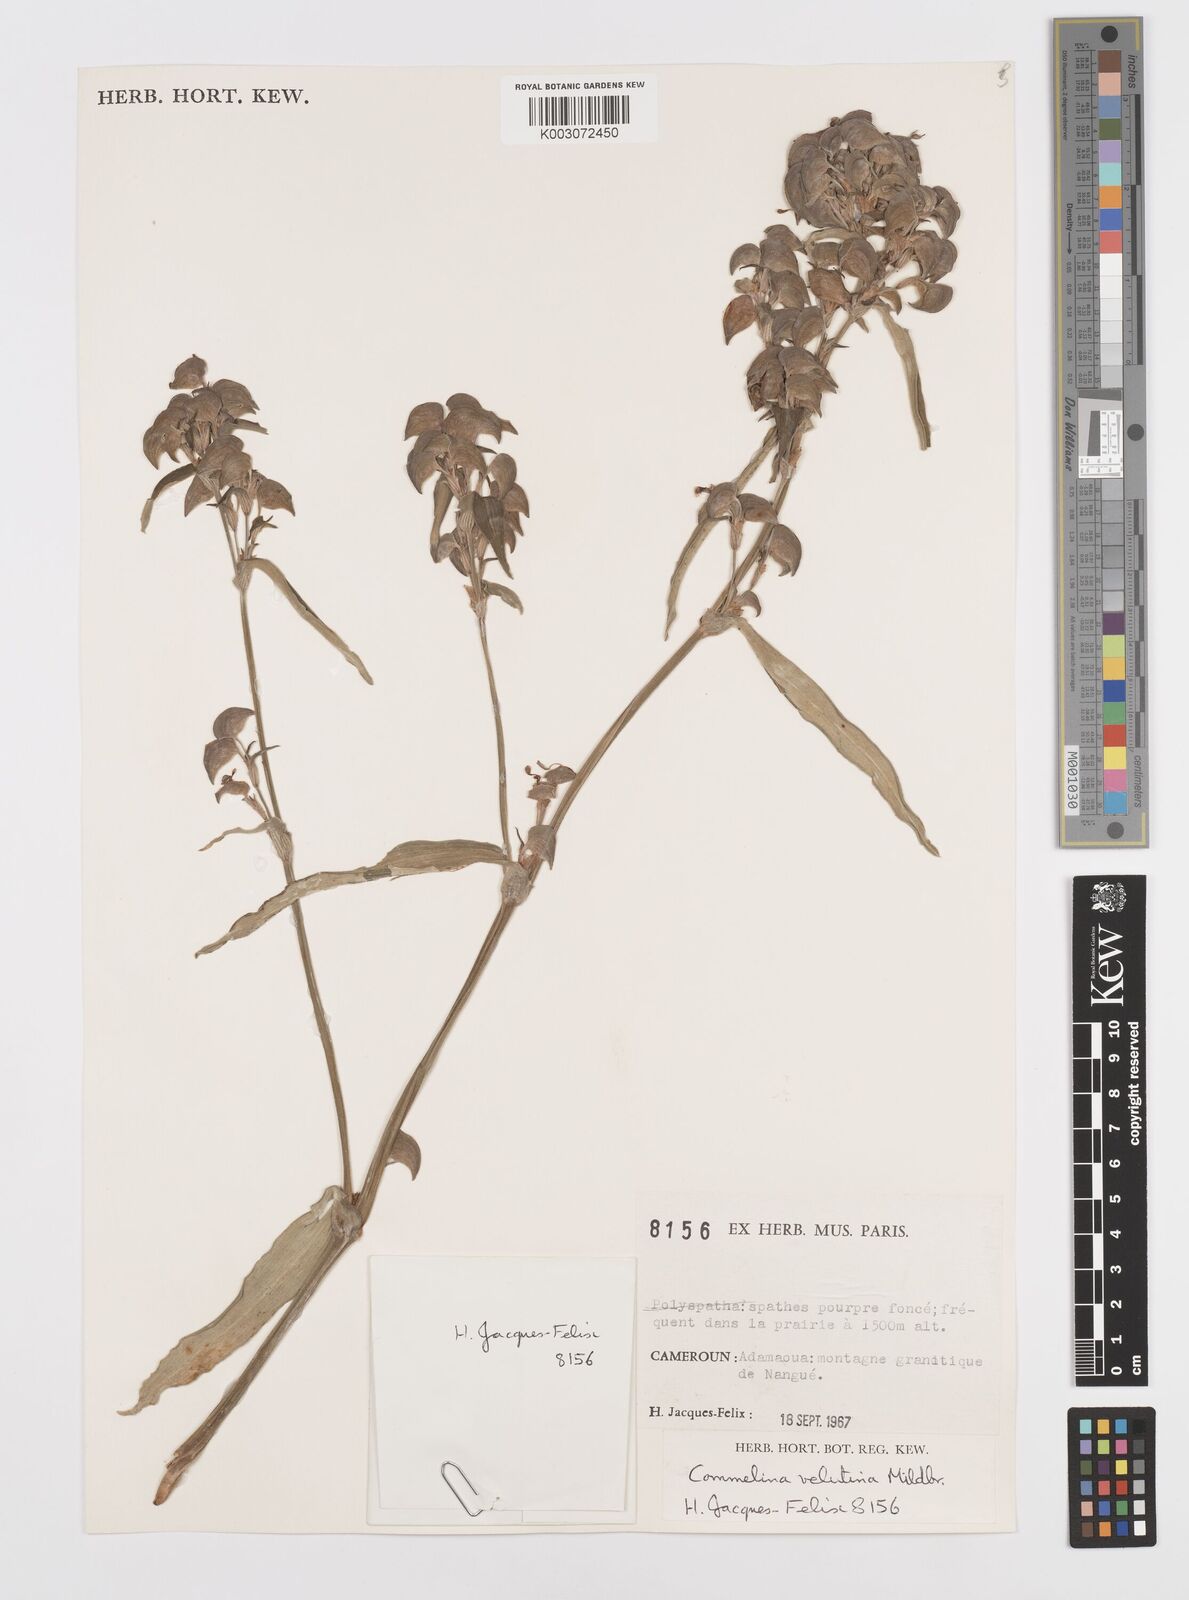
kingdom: Plantae
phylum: Tracheophyta
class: Liliopsida
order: Commelinales
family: Commelinaceae
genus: Commelina
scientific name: Commelina velutina
